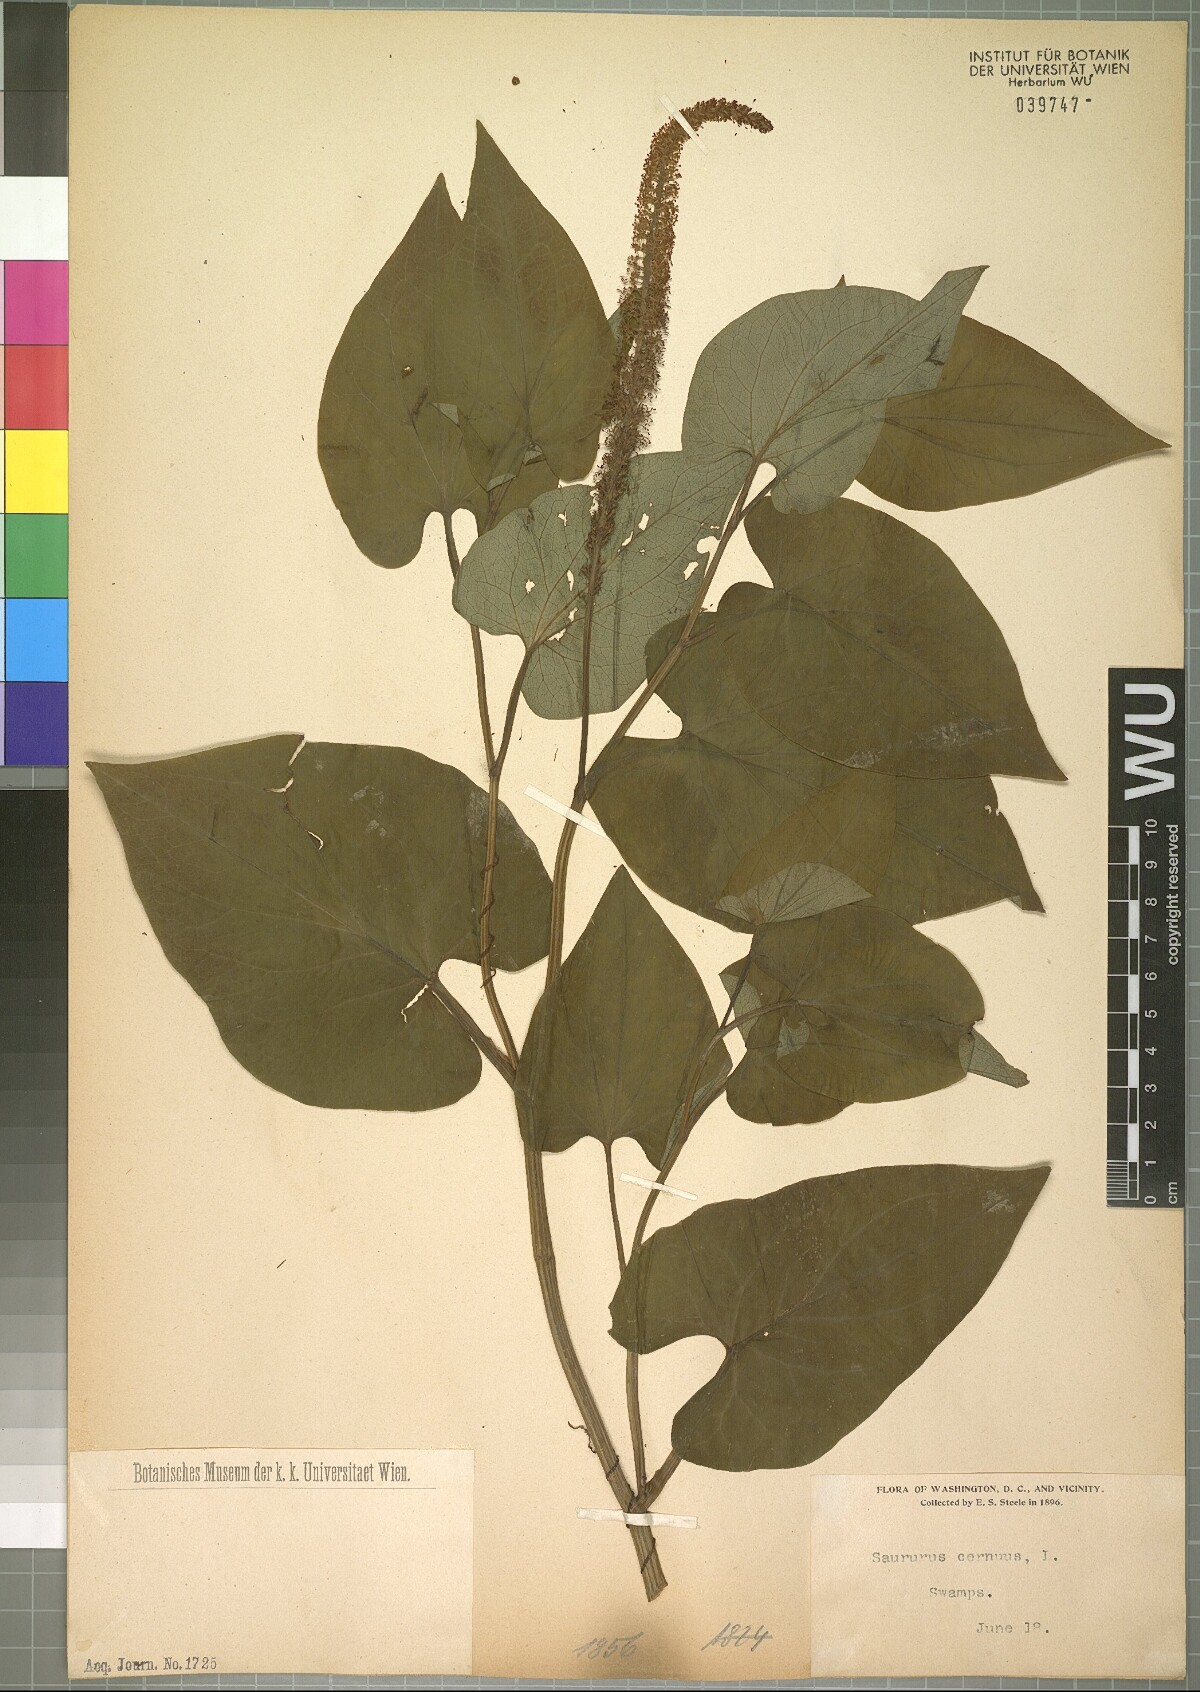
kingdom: Plantae
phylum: Tracheophyta
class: Magnoliopsida
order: Piperales
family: Saururaceae
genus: Saururus
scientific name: Saururus cernuus
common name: Lizard's-tail
